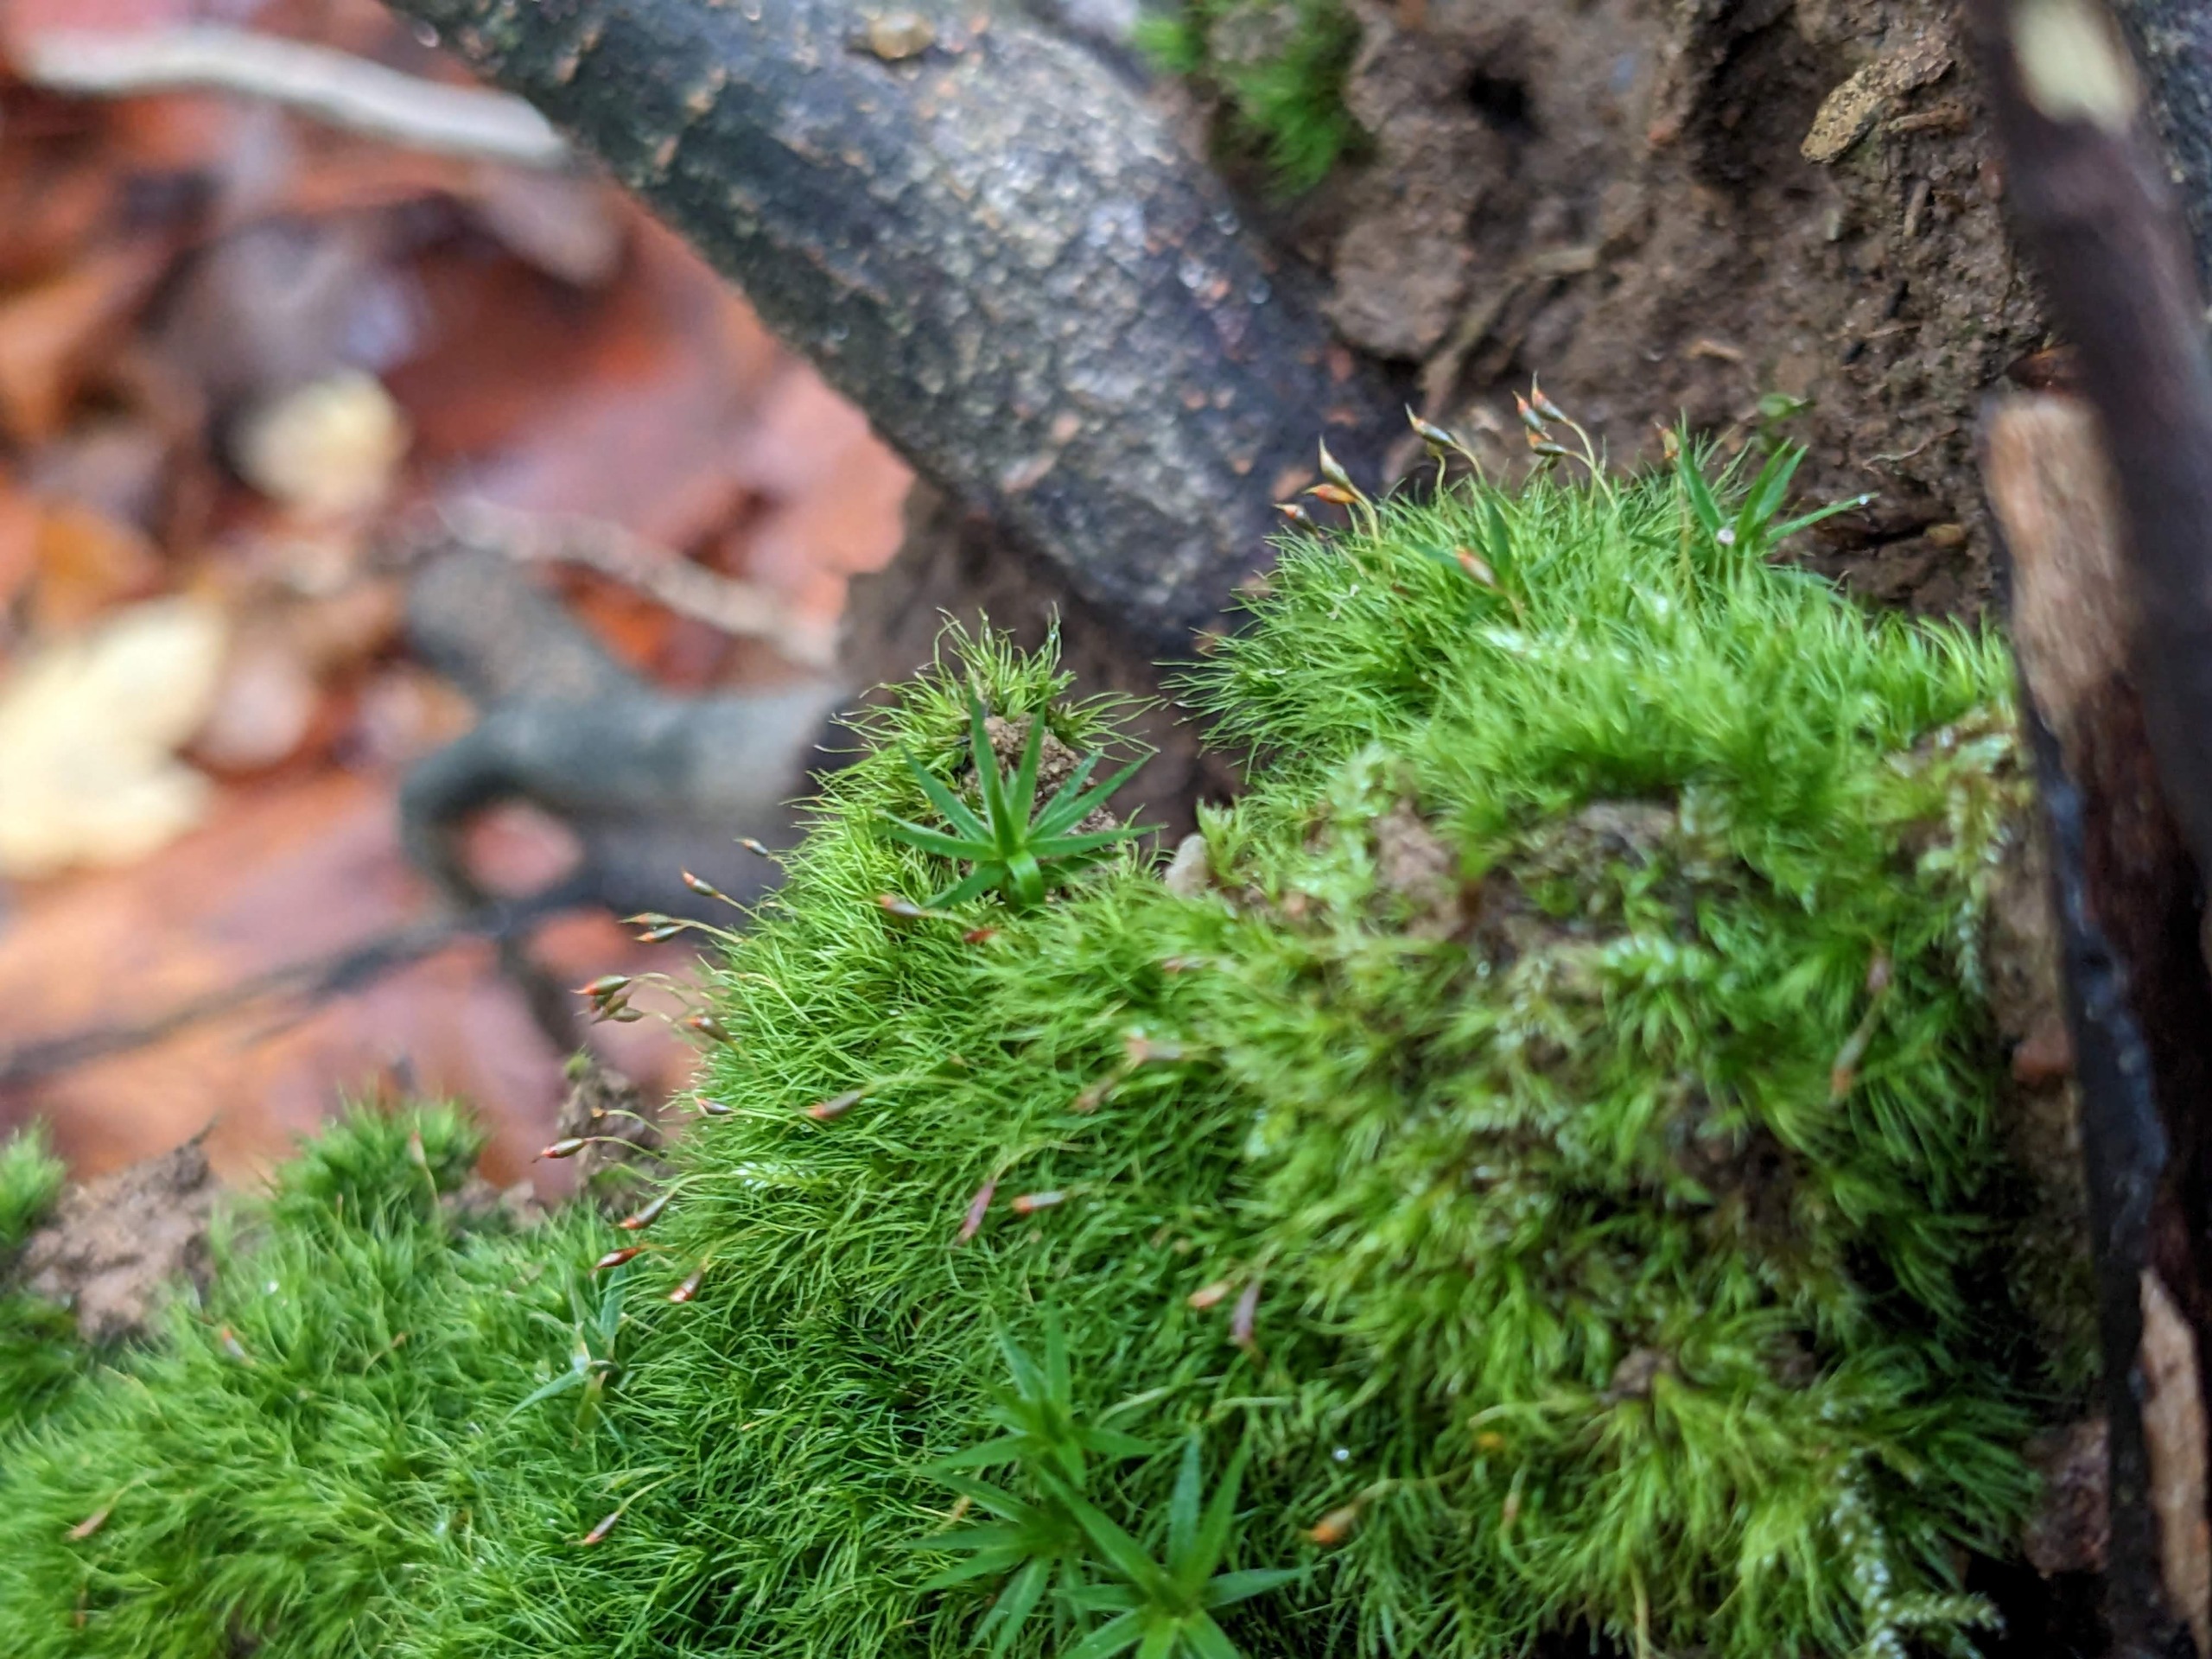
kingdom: Plantae
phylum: Bryophyta
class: Bryopsida
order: Dicranales
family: Dicranellaceae
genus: Dicranella
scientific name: Dicranella heteromalla
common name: Almindelig fløjlsmos
